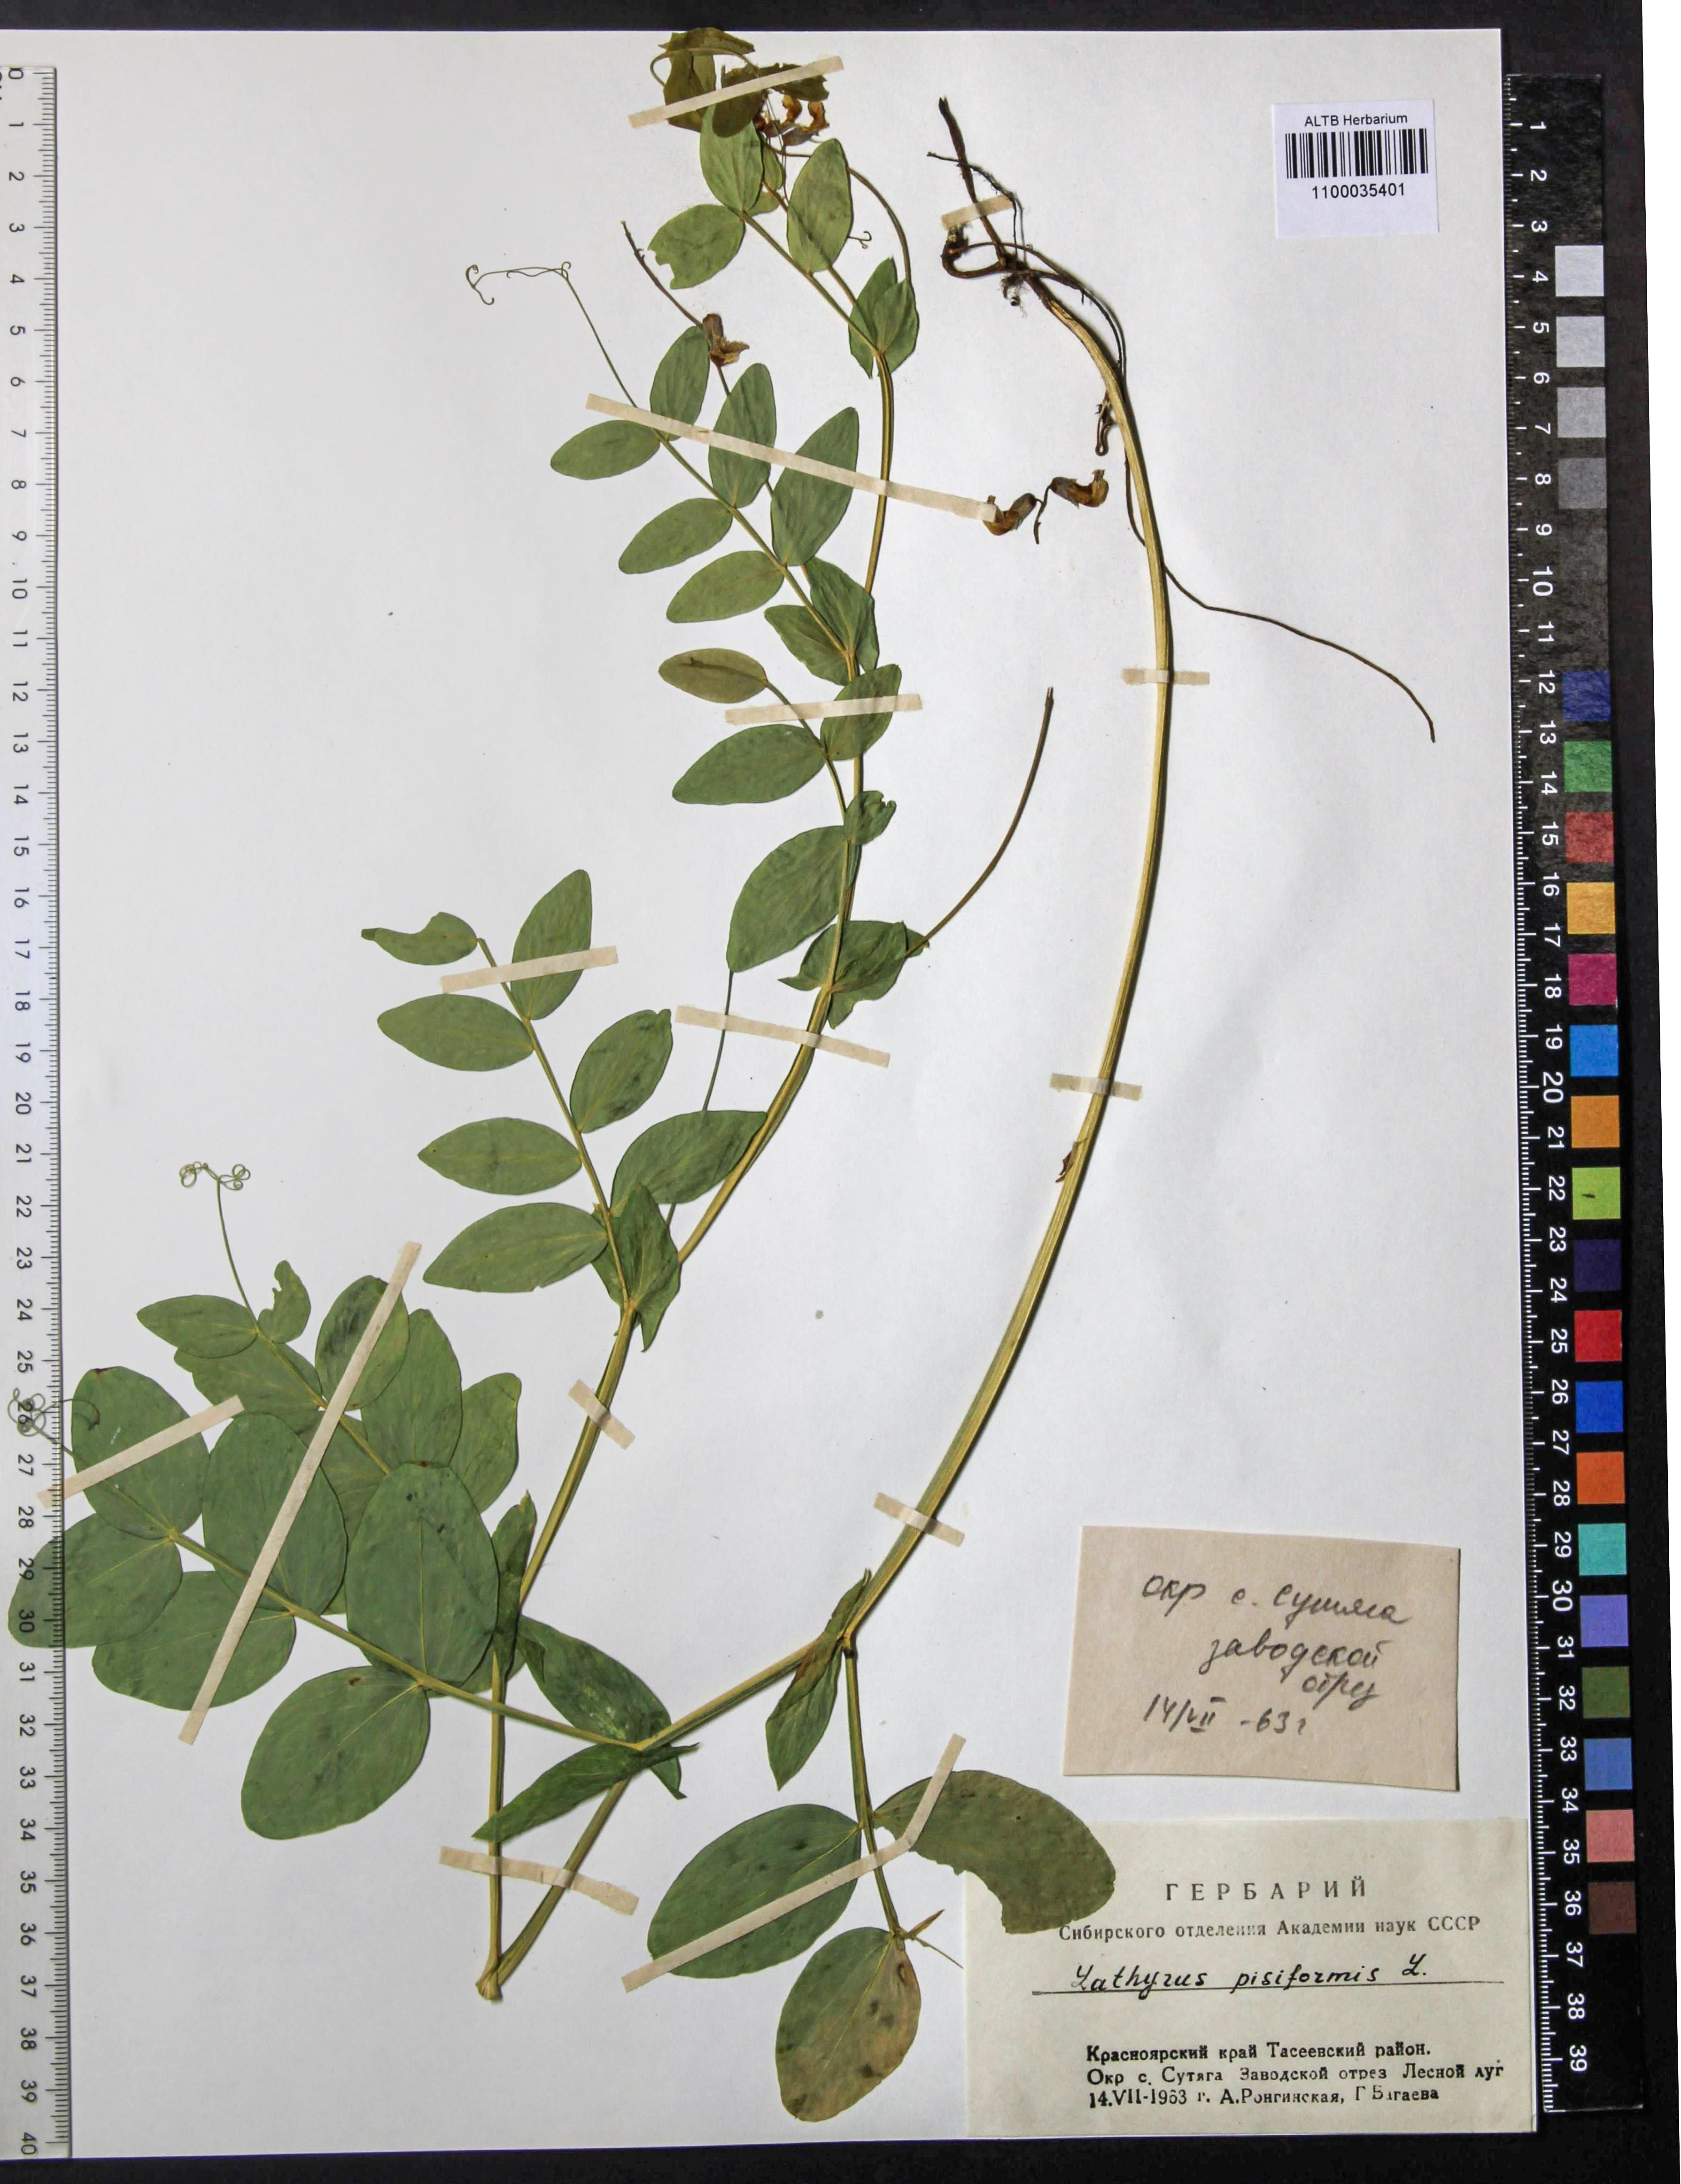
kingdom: Plantae
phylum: Tracheophyta
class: Magnoliopsida
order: Fabales
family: Fabaceae
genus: Lathyrus
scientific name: Lathyrus pisiformis
